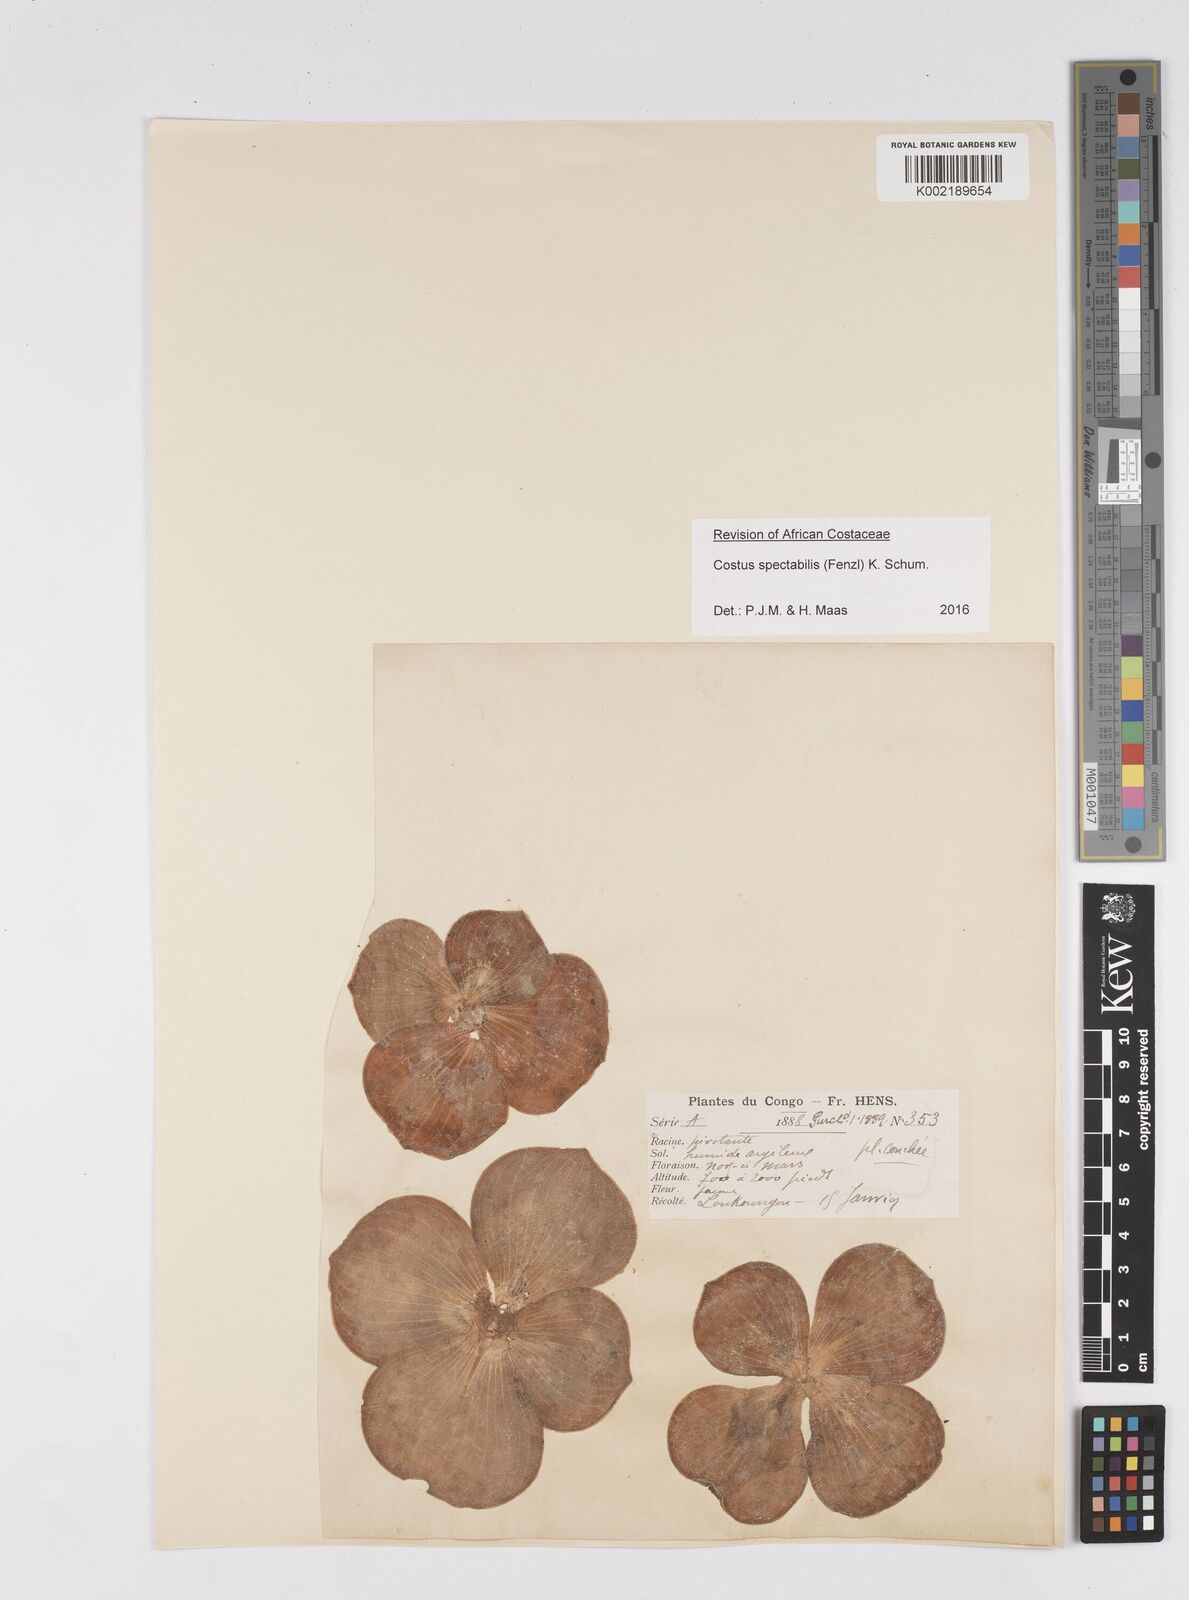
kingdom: Plantae
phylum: Tracheophyta
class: Liliopsida
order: Zingiberales
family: Costaceae
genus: Costus
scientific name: Costus spectabilis
